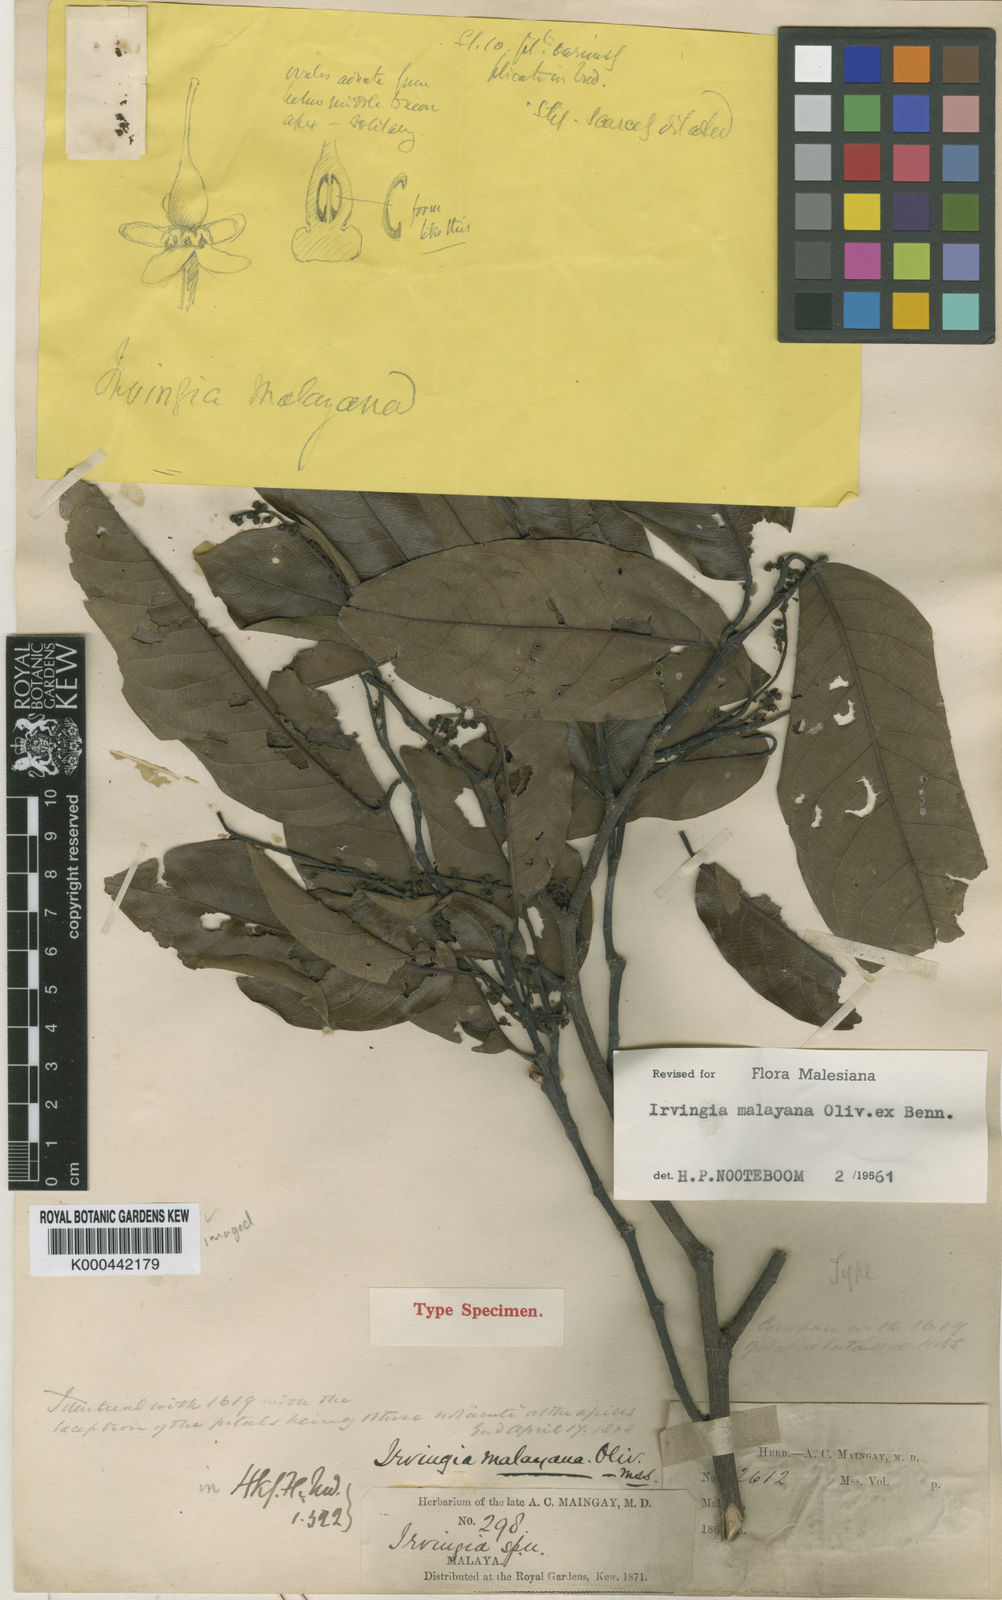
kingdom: Plantae
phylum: Tracheophyta
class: Magnoliopsida
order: Malpighiales
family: Irvingiaceae
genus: Irvingia
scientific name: Irvingia malayana
